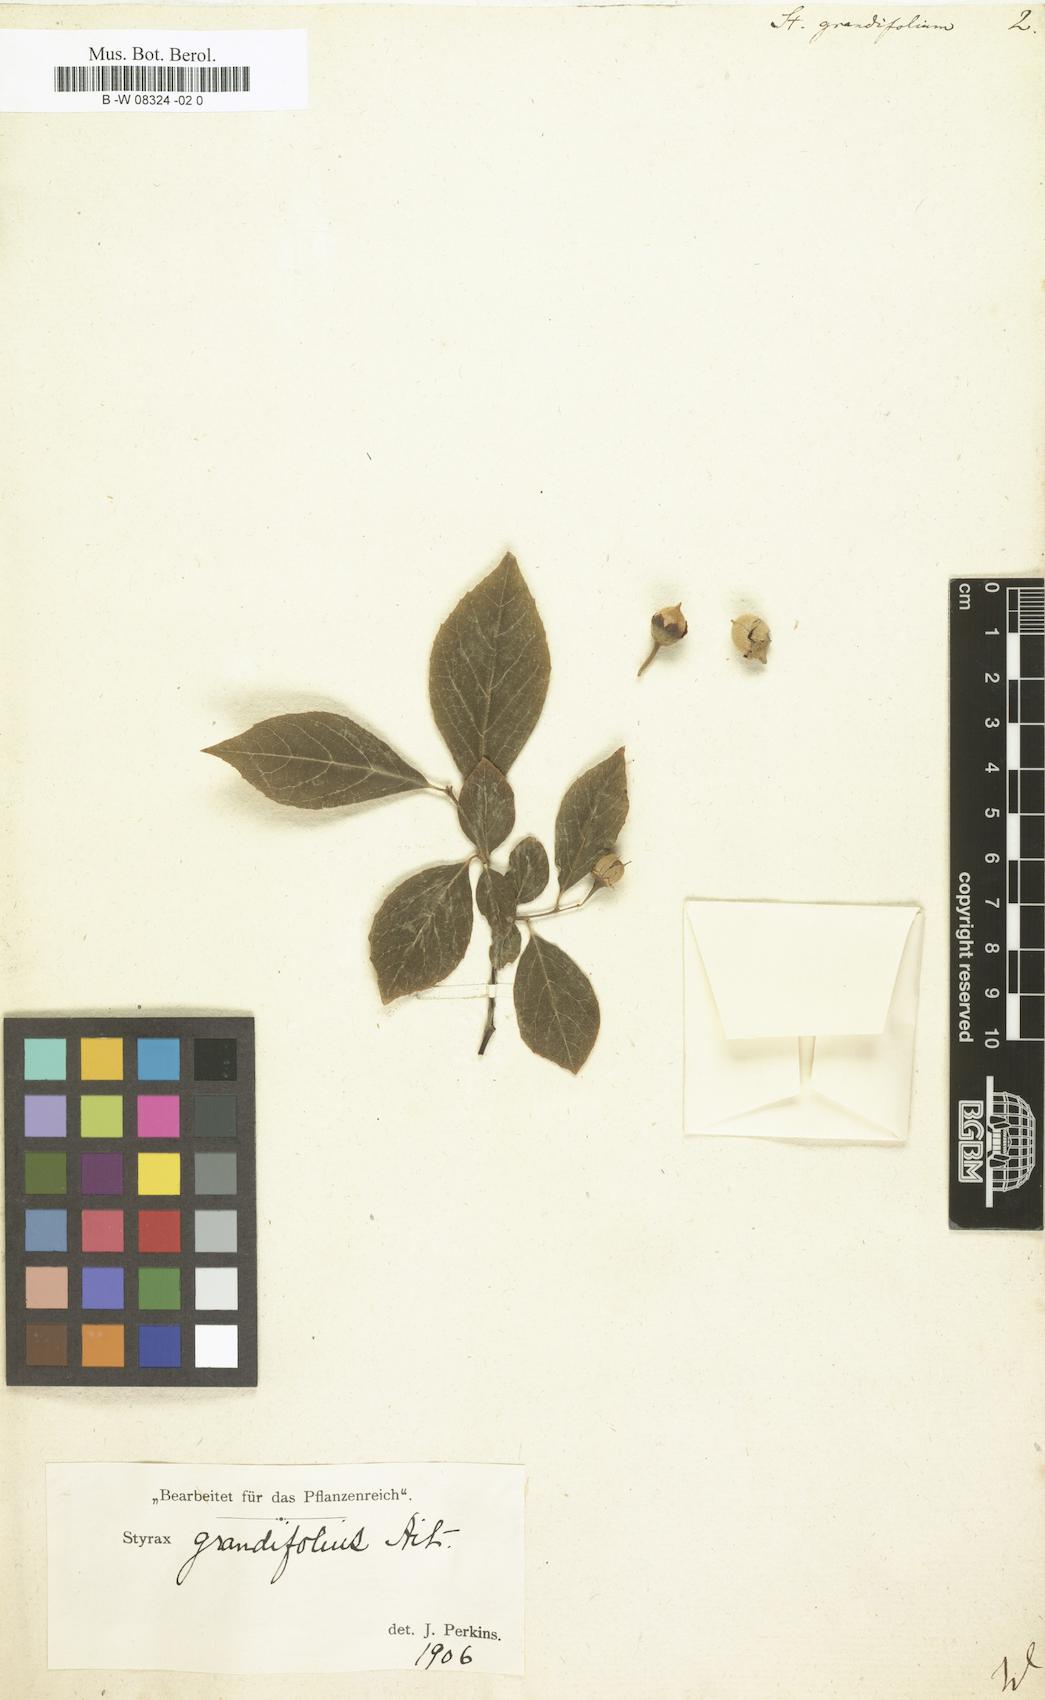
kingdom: Plantae
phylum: Tracheophyta
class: Magnoliopsida
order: Ericales
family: Styracaceae
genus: Styrax
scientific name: Styrax grandifolius
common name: Big-leaf snowbell
